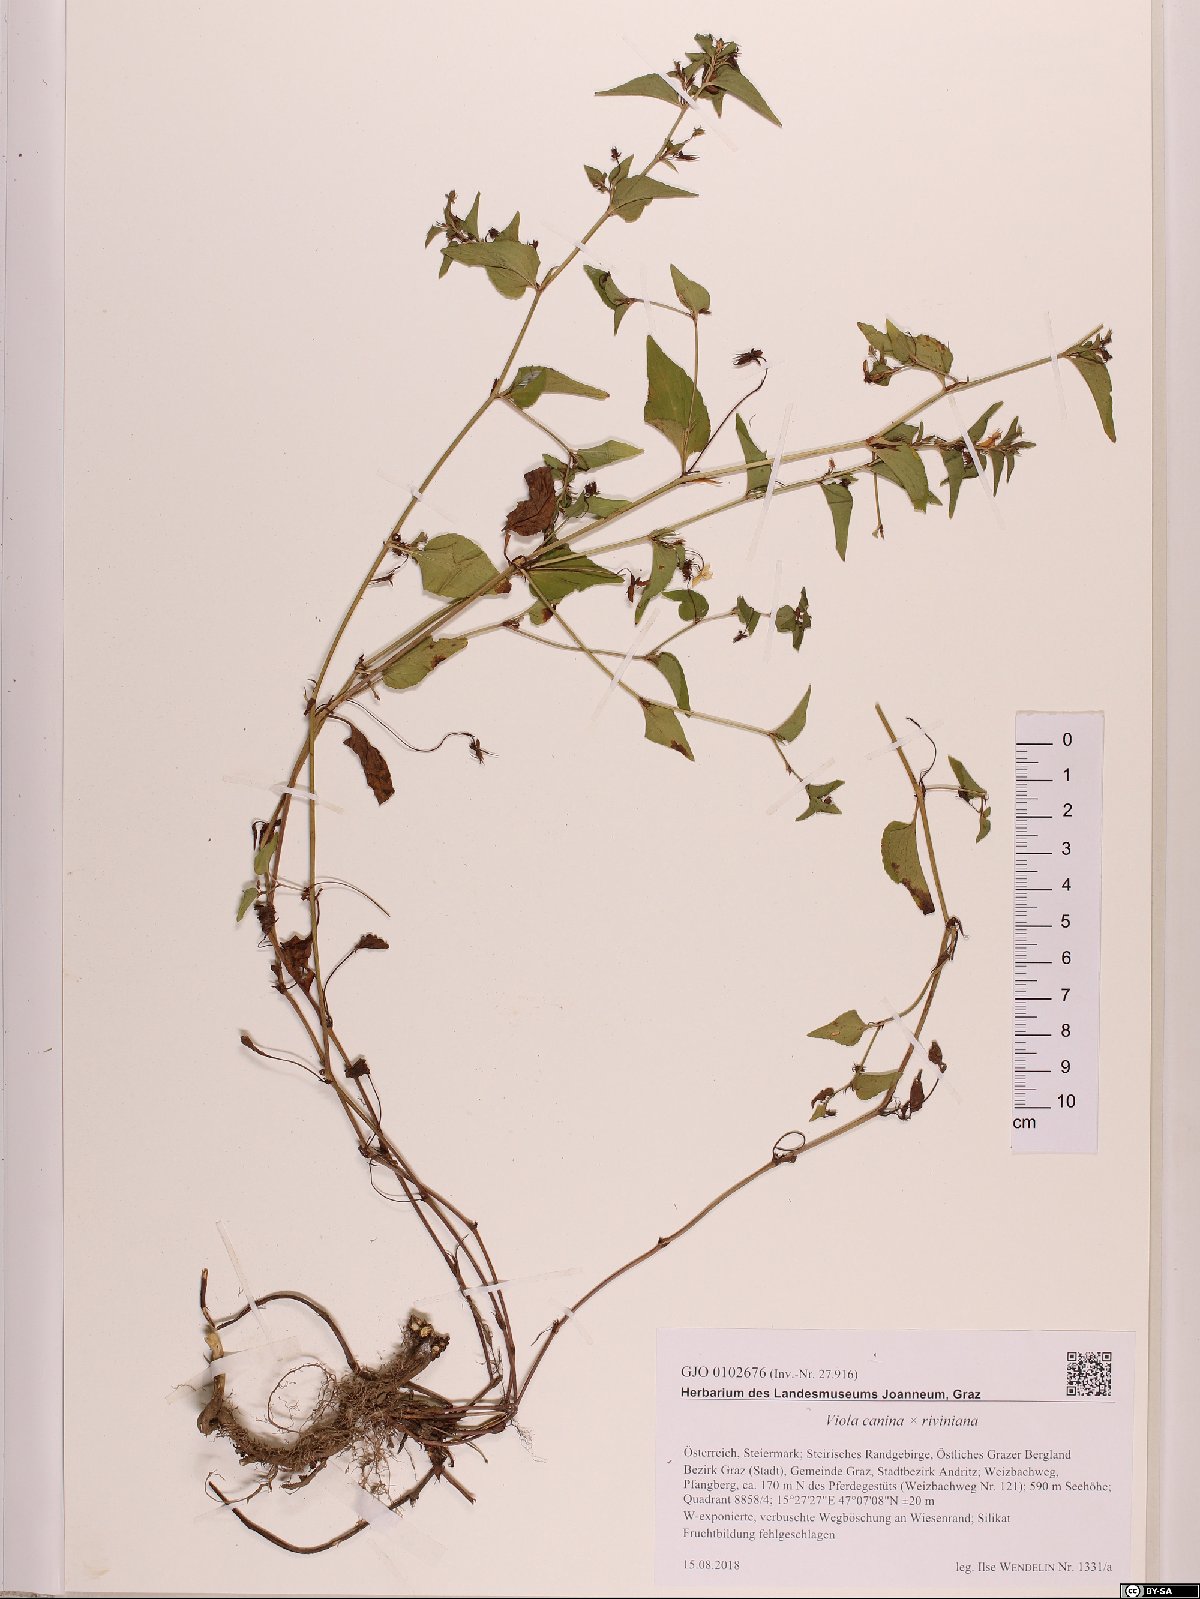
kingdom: Plantae
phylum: Tracheophyta
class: Magnoliopsida
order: Malpighiales
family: Violaceae
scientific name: Violaceae
